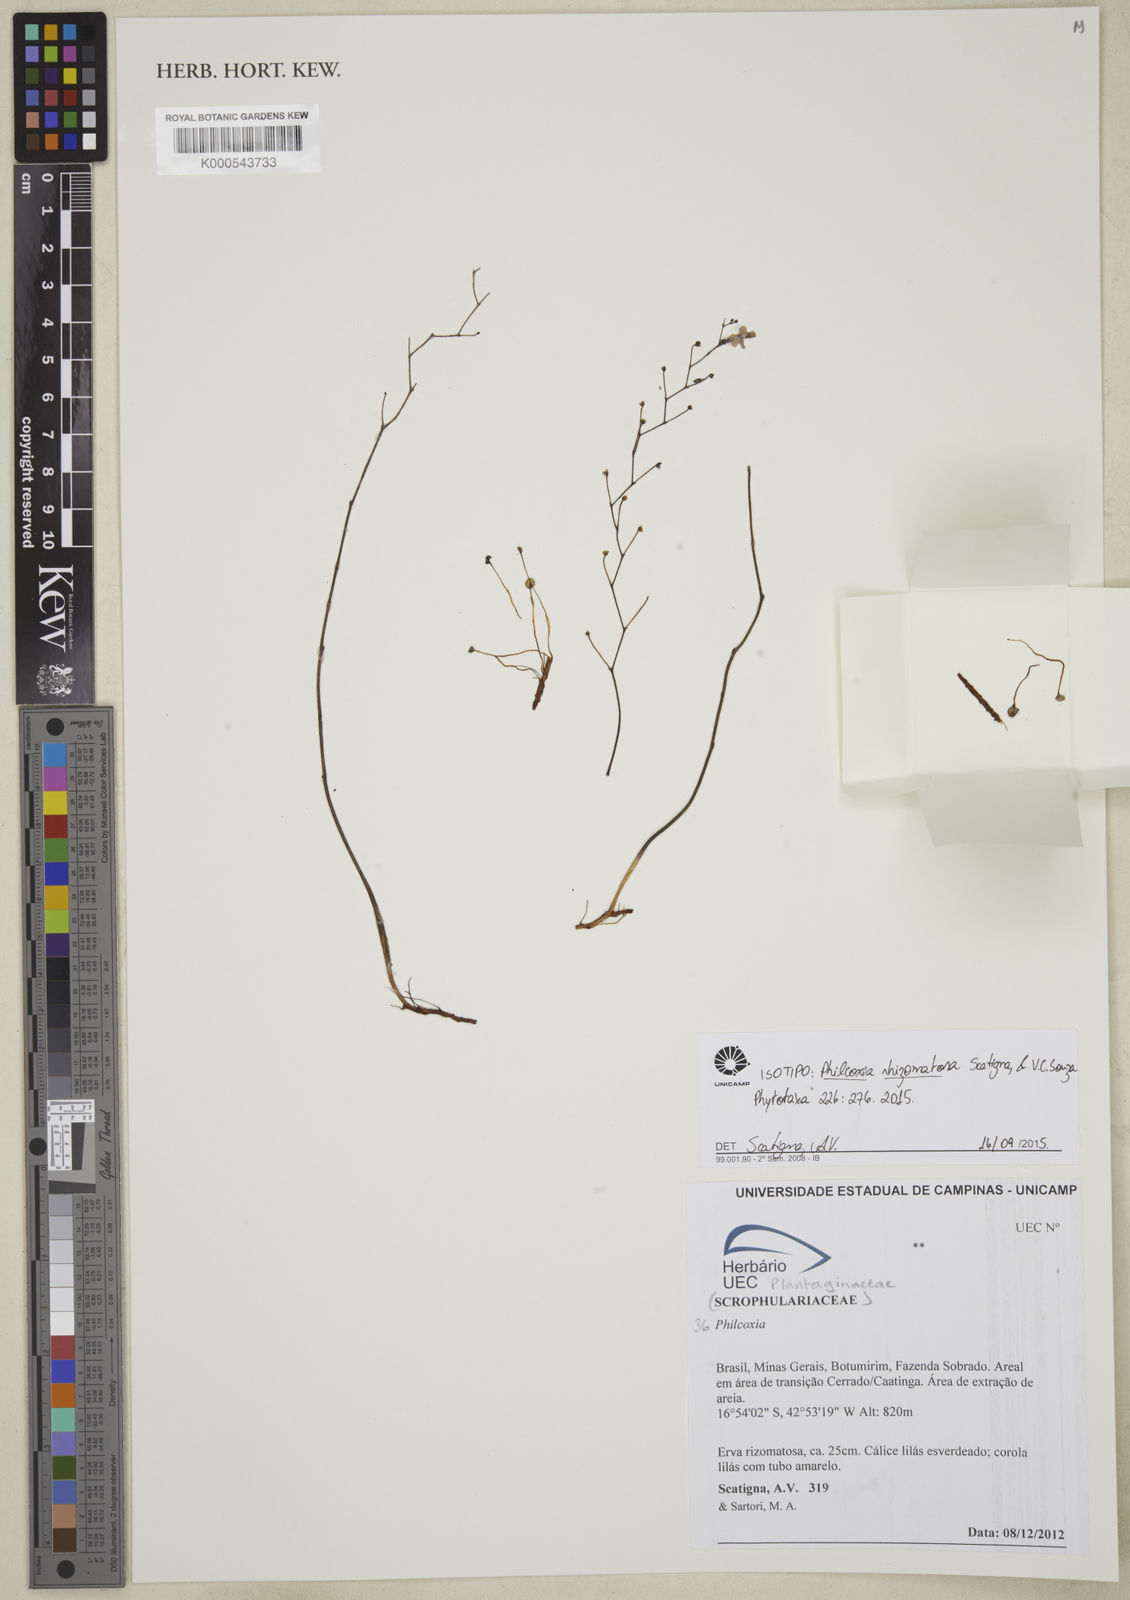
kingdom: Plantae
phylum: Tracheophyta
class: Magnoliopsida
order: Lamiales
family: Plantaginaceae
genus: Philcoxia
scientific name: Philcoxia rhizomatosa
